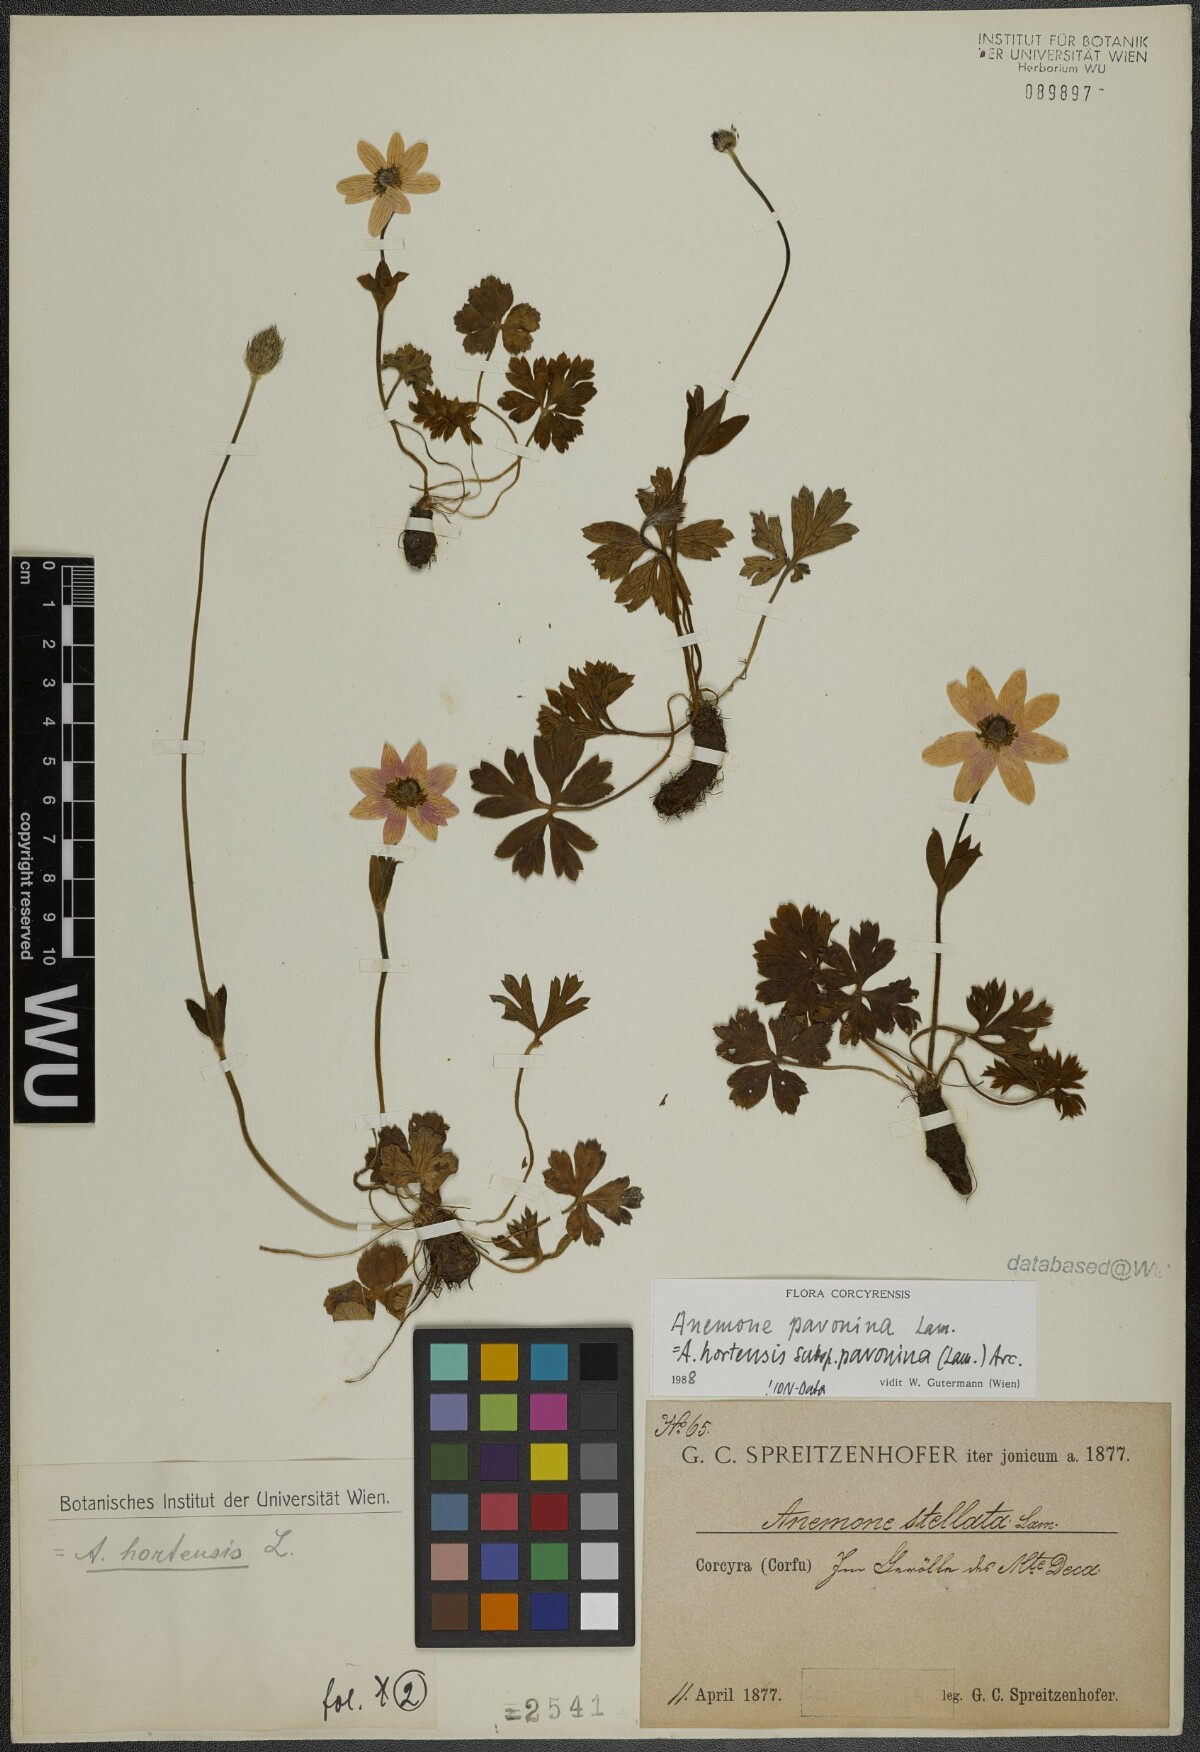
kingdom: Plantae
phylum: Tracheophyta
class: Magnoliopsida
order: Ranunculales
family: Ranunculaceae
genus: Anemone
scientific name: Anemone pavonina
